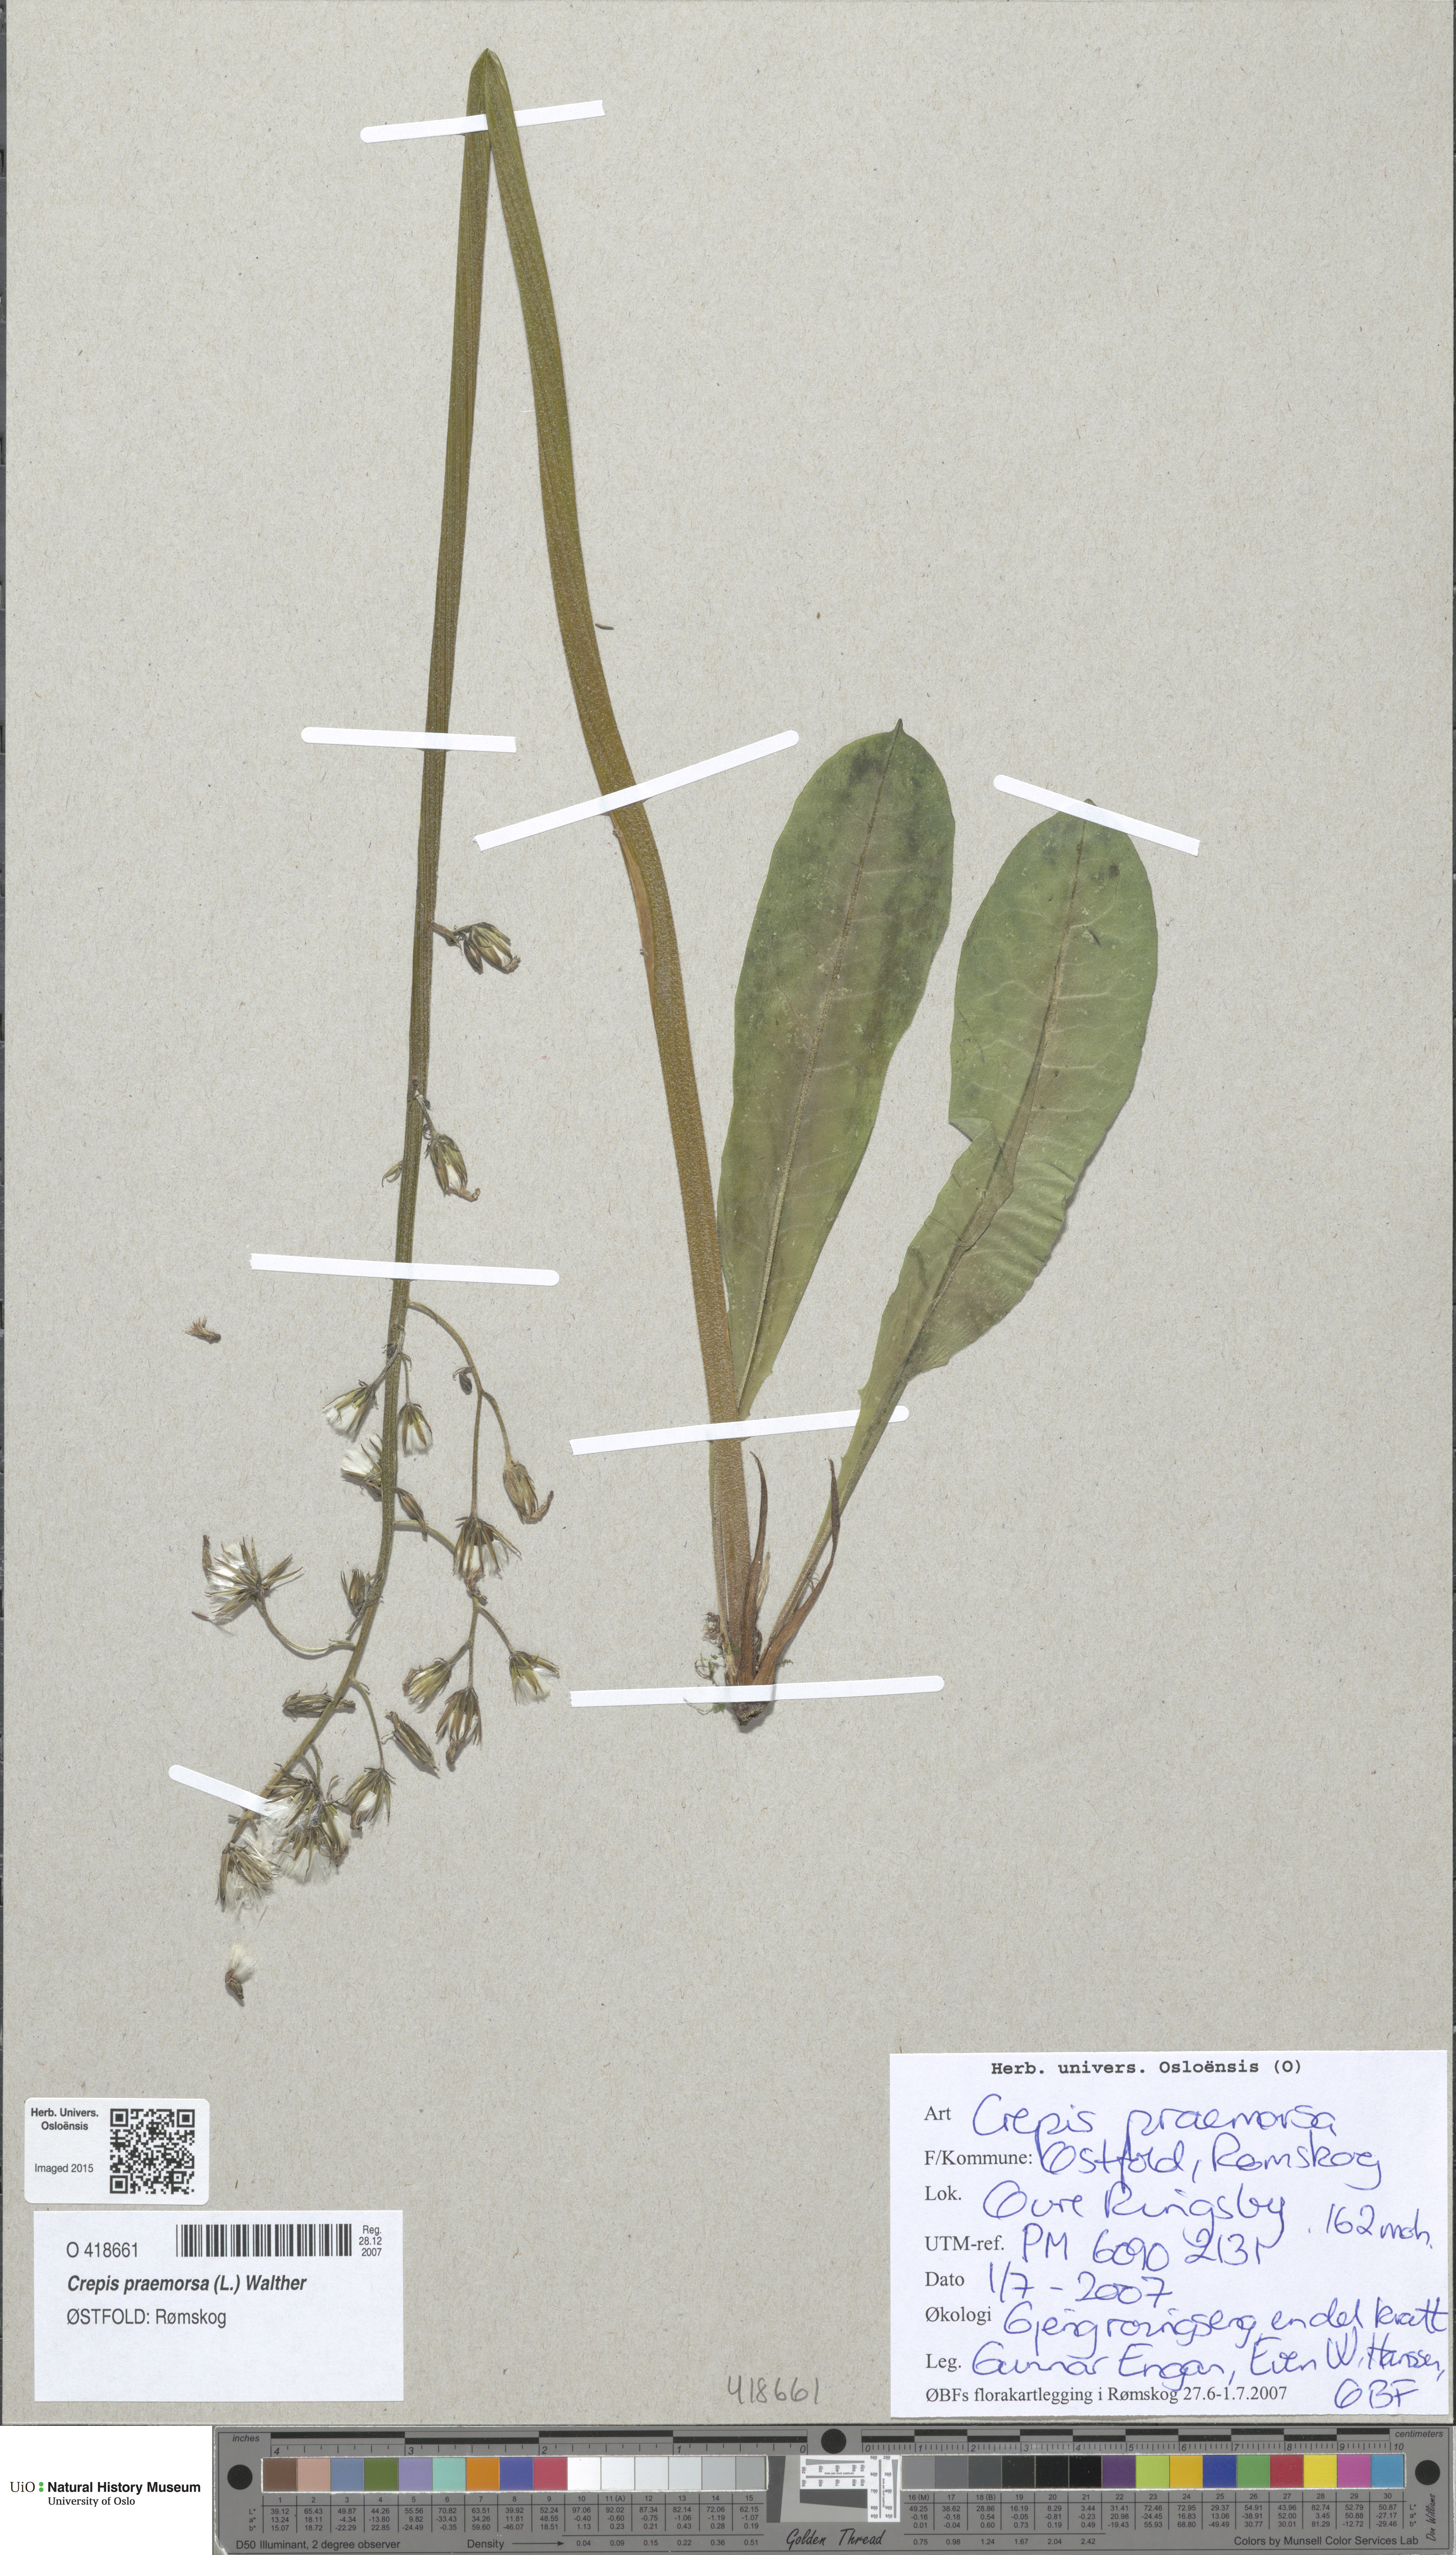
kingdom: Plantae
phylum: Tracheophyta
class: Magnoliopsida
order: Asterales
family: Asteraceae
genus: Crepis
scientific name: Crepis praemorsa
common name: Leafless hawk's-beard
